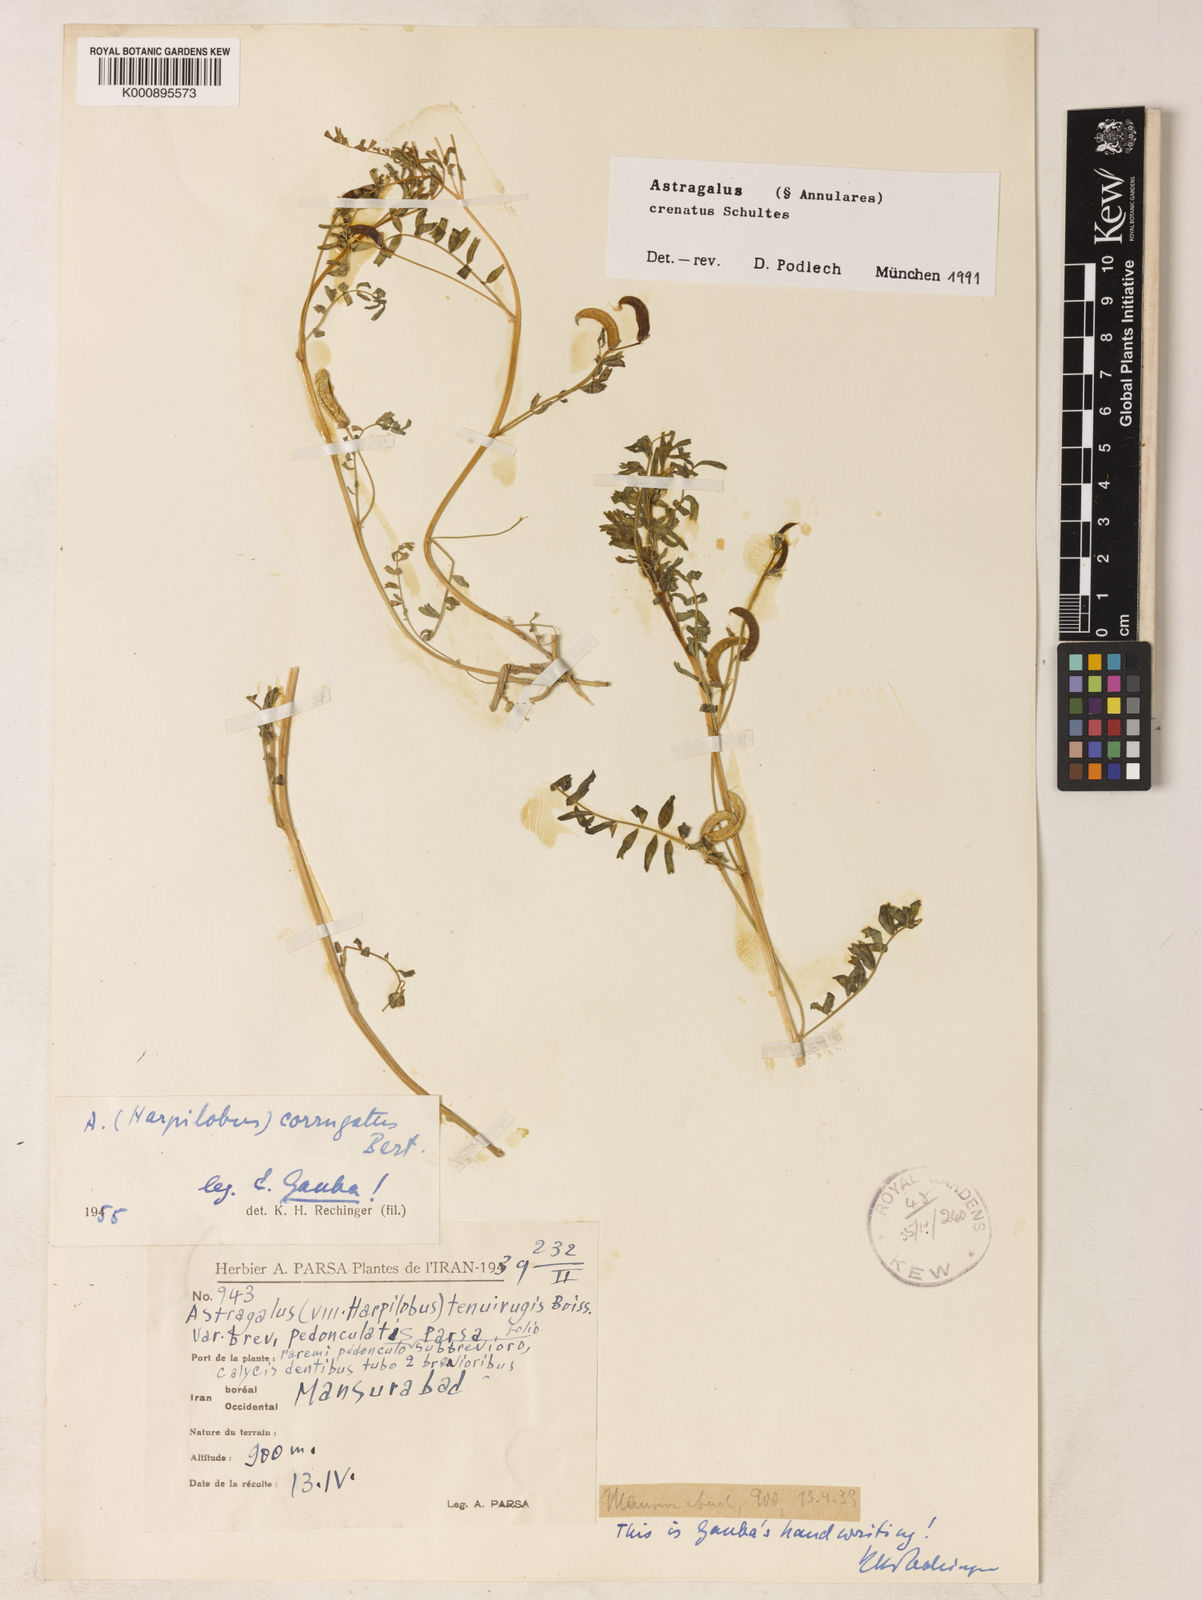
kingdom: Plantae
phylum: Tracheophyta
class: Magnoliopsida
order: Fabales
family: Fabaceae
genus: Astragalus
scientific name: Astragalus
